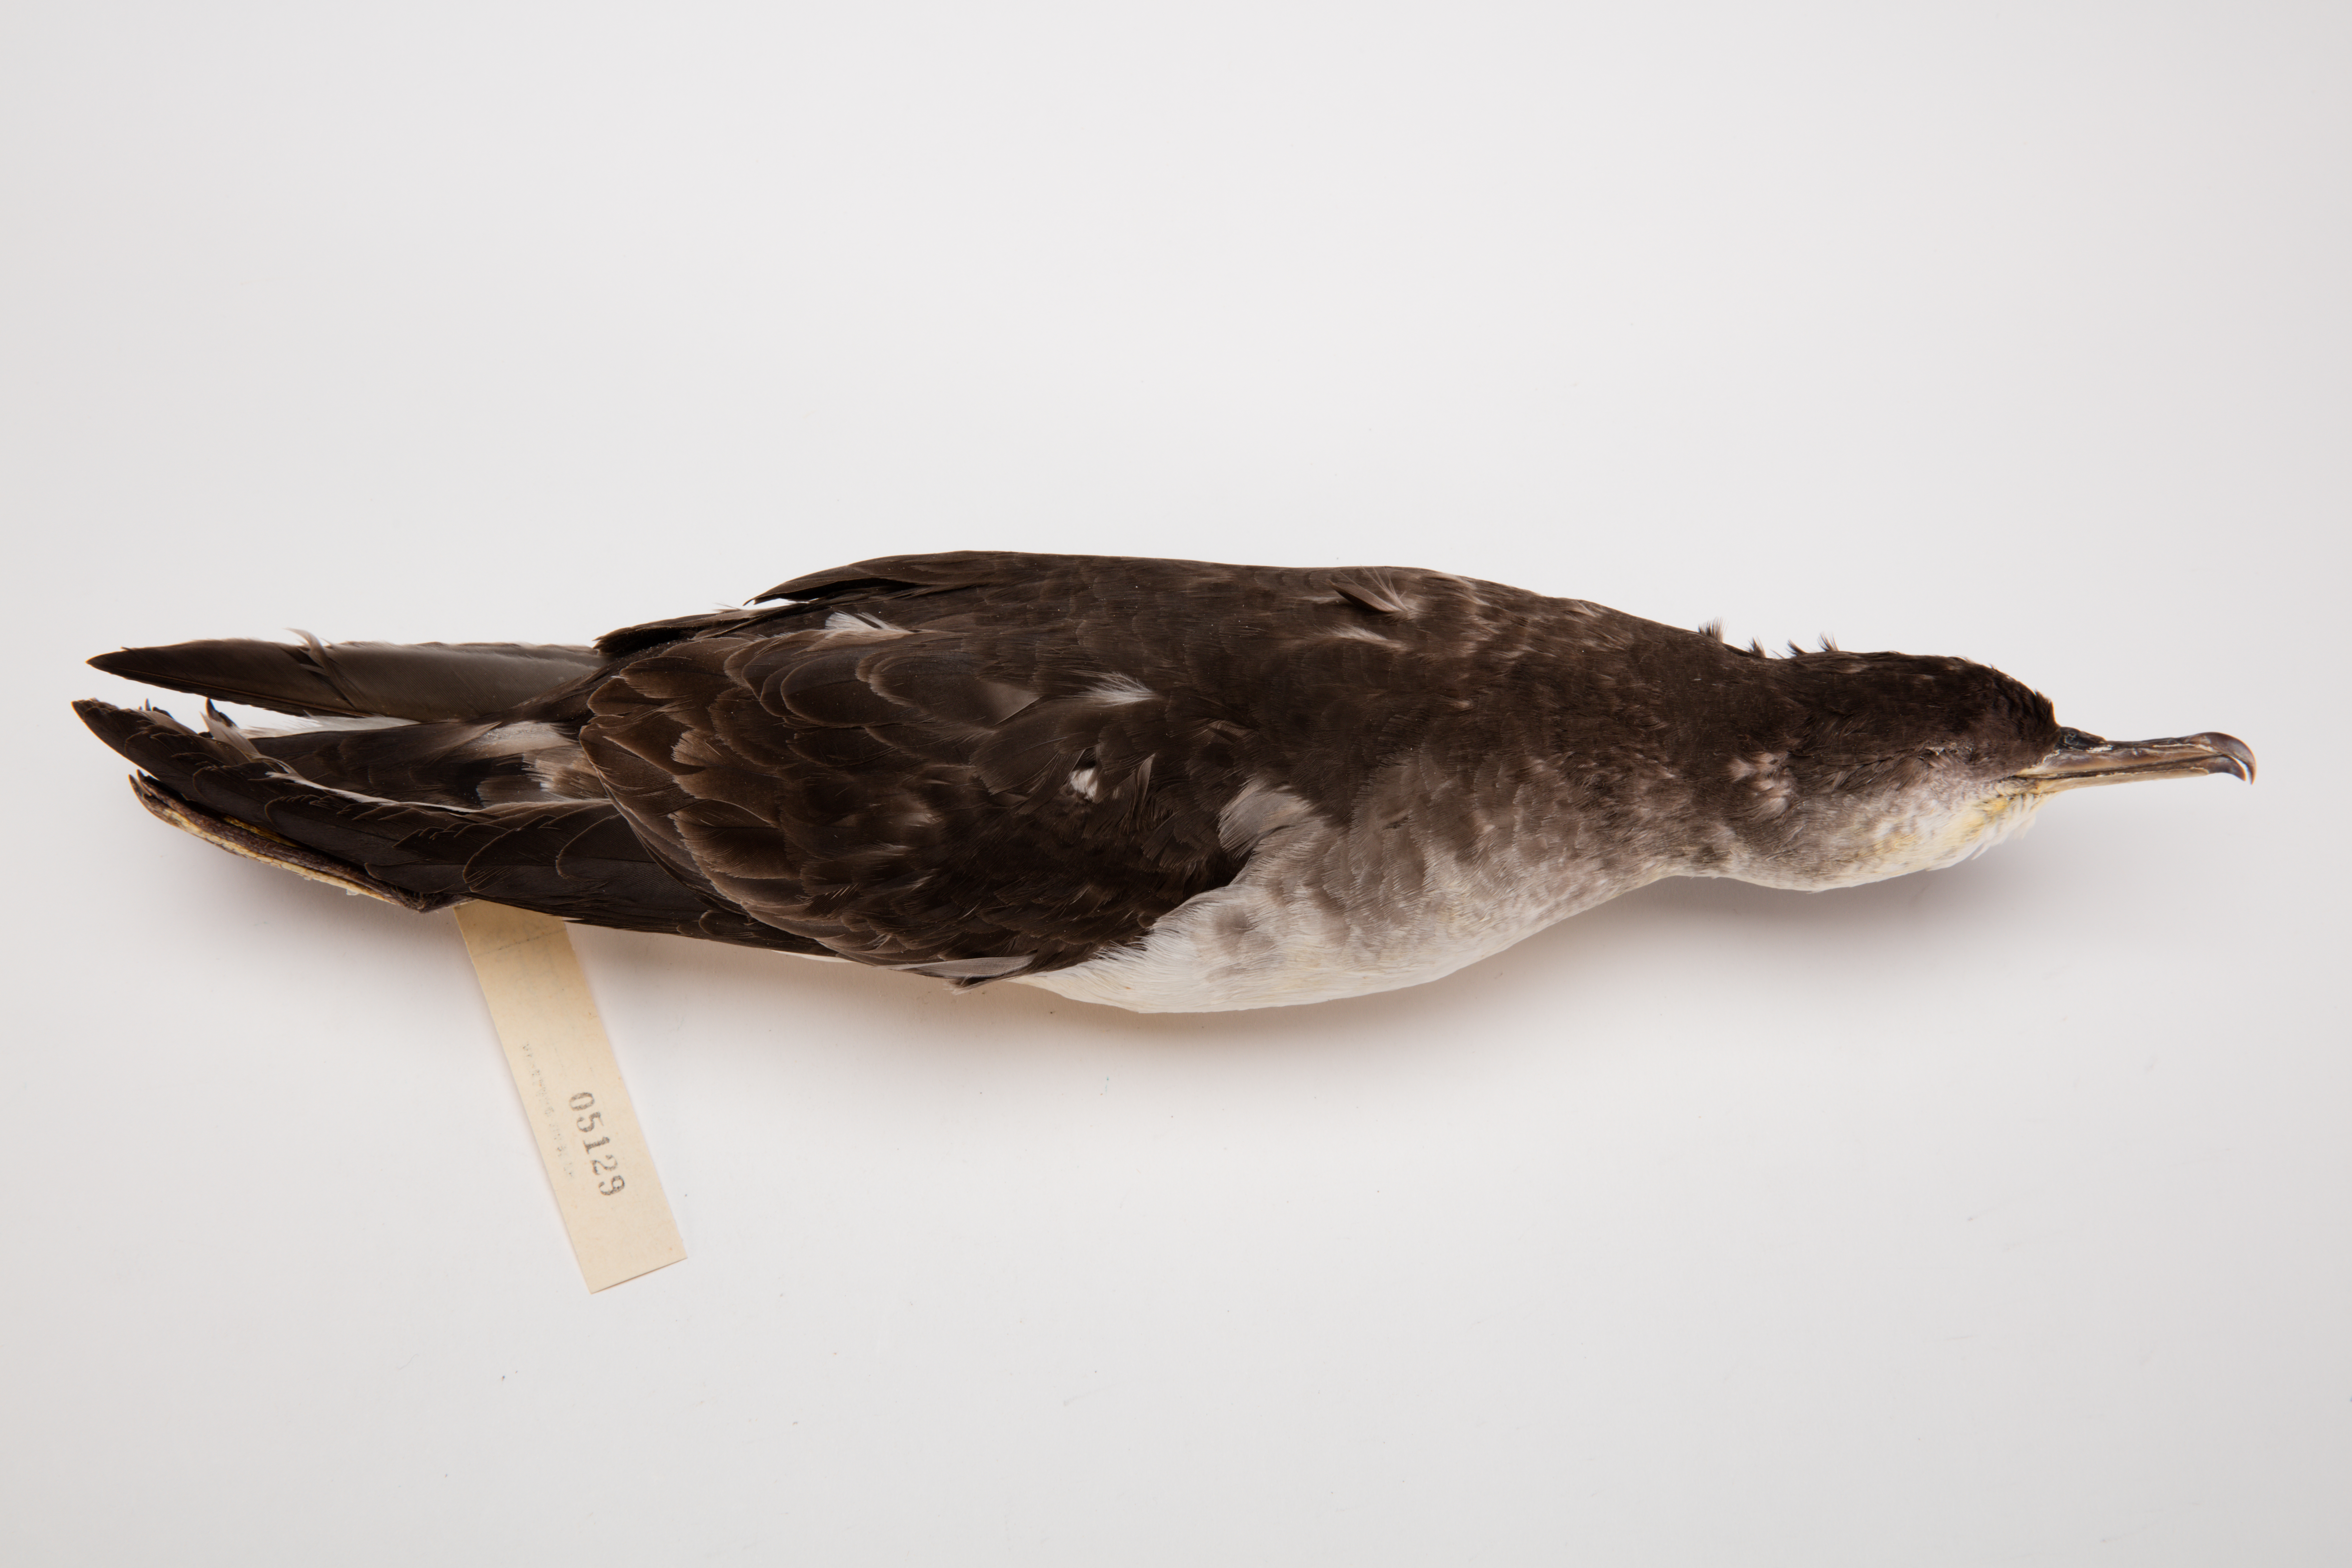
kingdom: Animalia
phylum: Chordata
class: Aves
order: Procellariiformes
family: Procellariidae
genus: Ardenna
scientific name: Ardenna
